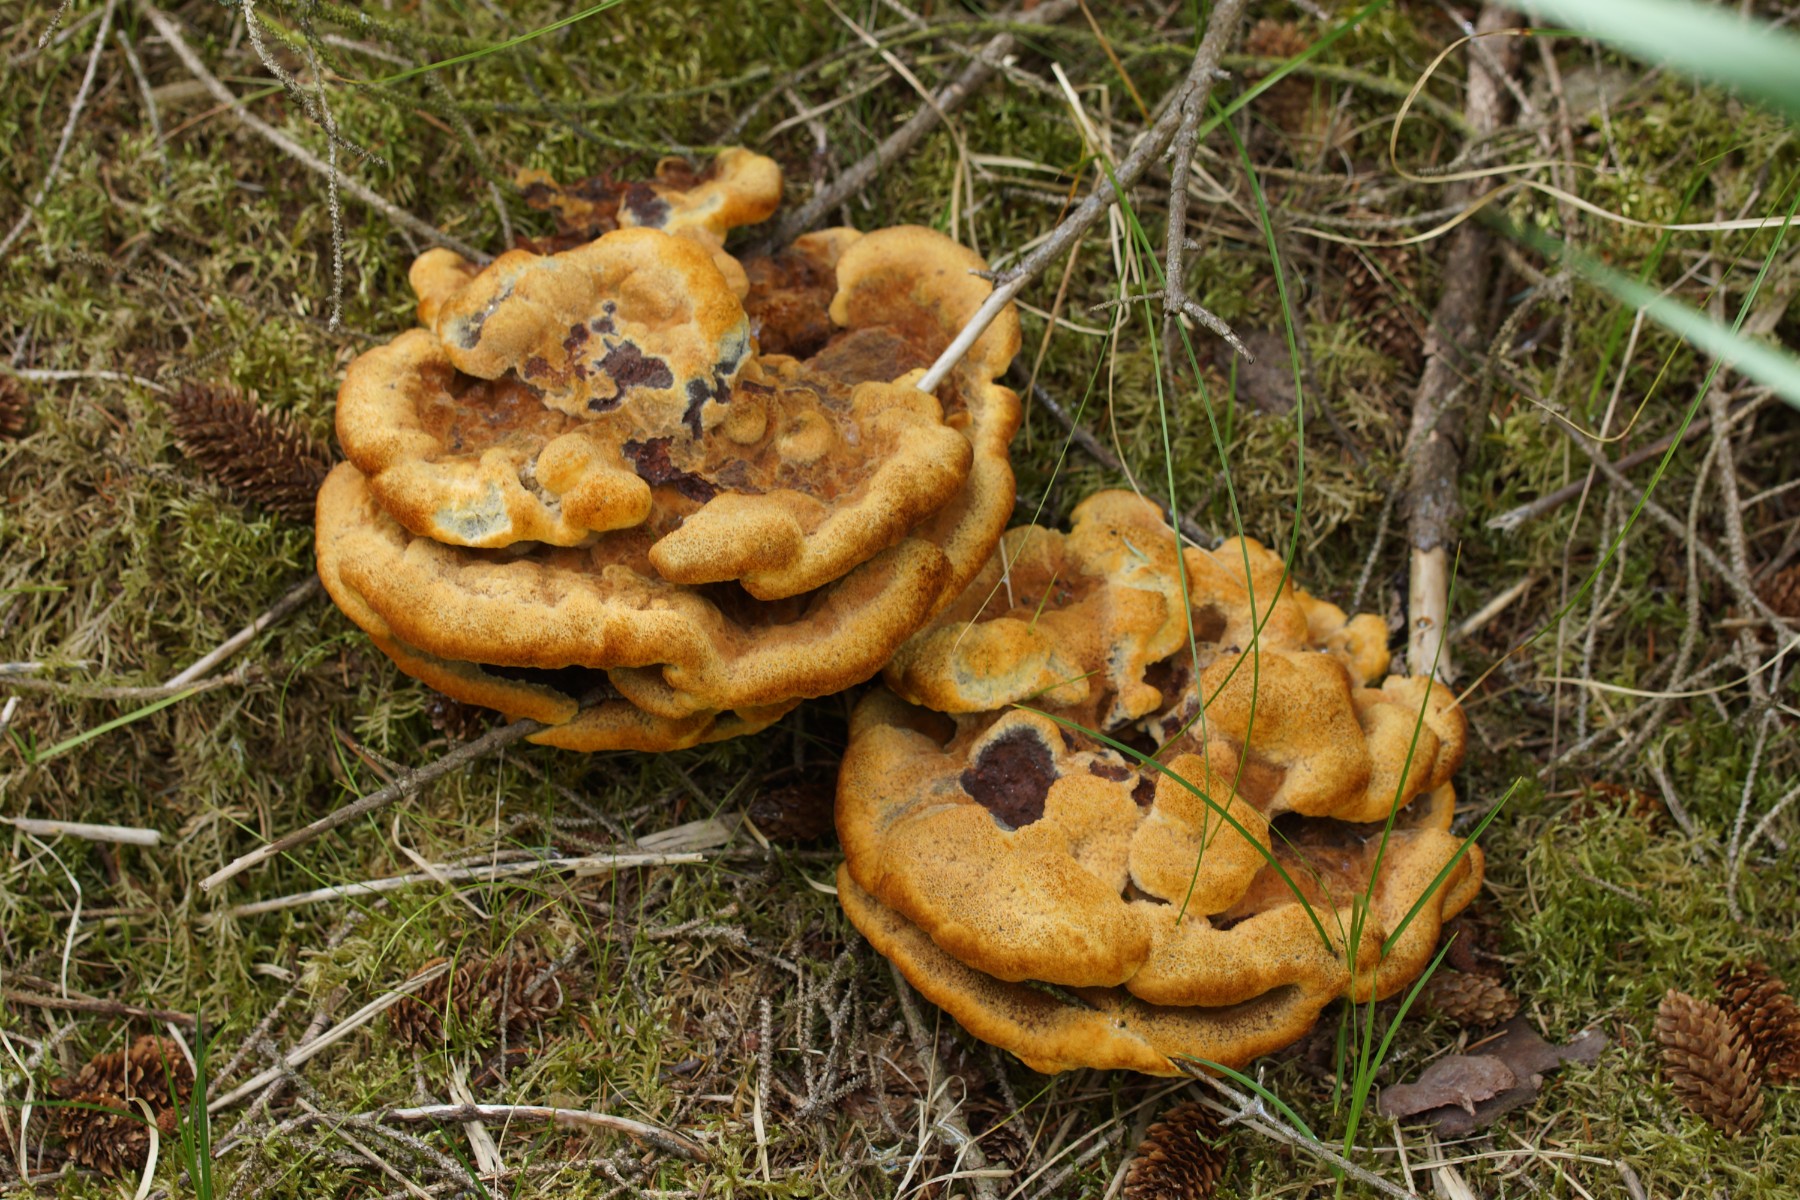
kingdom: Fungi
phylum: Basidiomycota
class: Agaricomycetes
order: Polyporales
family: Laetiporaceae
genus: Phaeolus
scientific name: Phaeolus schweinitzii
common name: brunporesvamp
